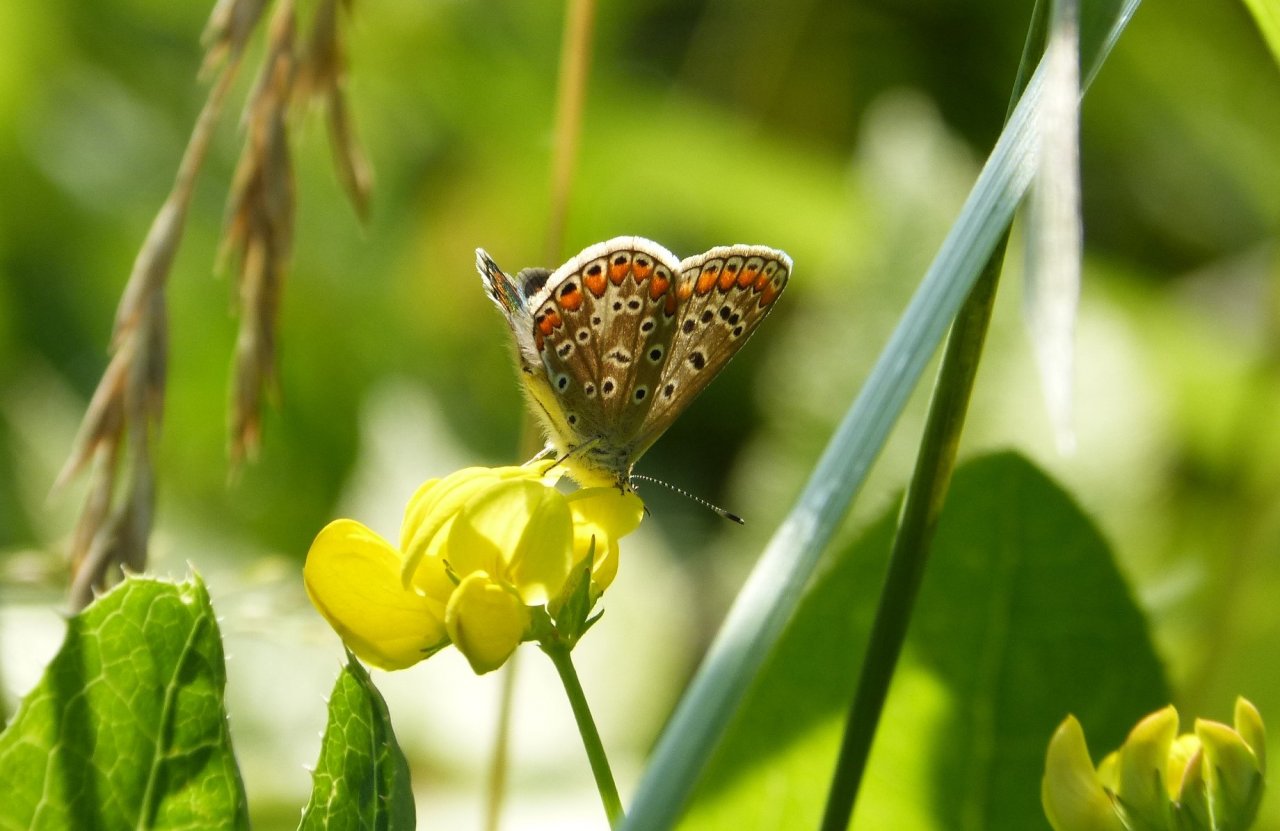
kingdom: Animalia
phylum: Arthropoda
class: Insecta
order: Lepidoptera
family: Lycaenidae
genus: Polyommatus
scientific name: Polyommatus icarus
